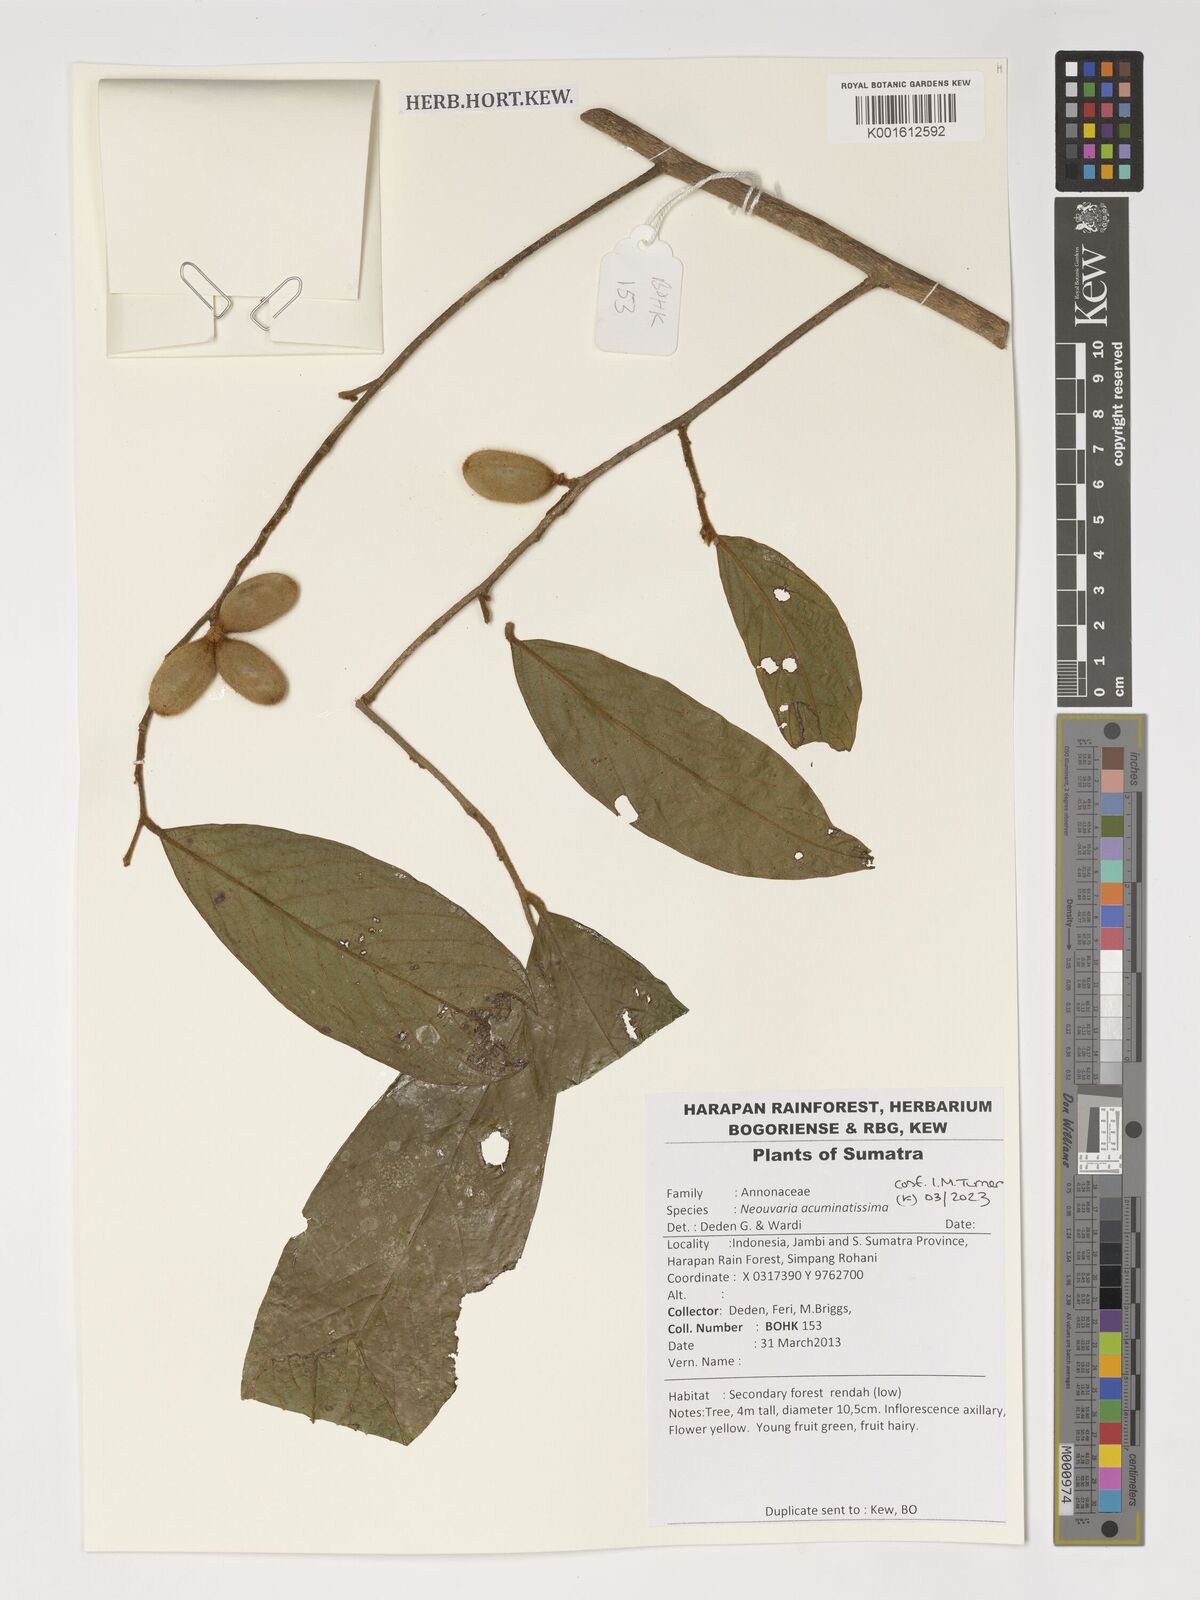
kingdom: Plantae
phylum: Tracheophyta
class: Magnoliopsida
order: Magnoliales
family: Annonaceae
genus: Neouvaria
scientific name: Neouvaria acuminatissima
